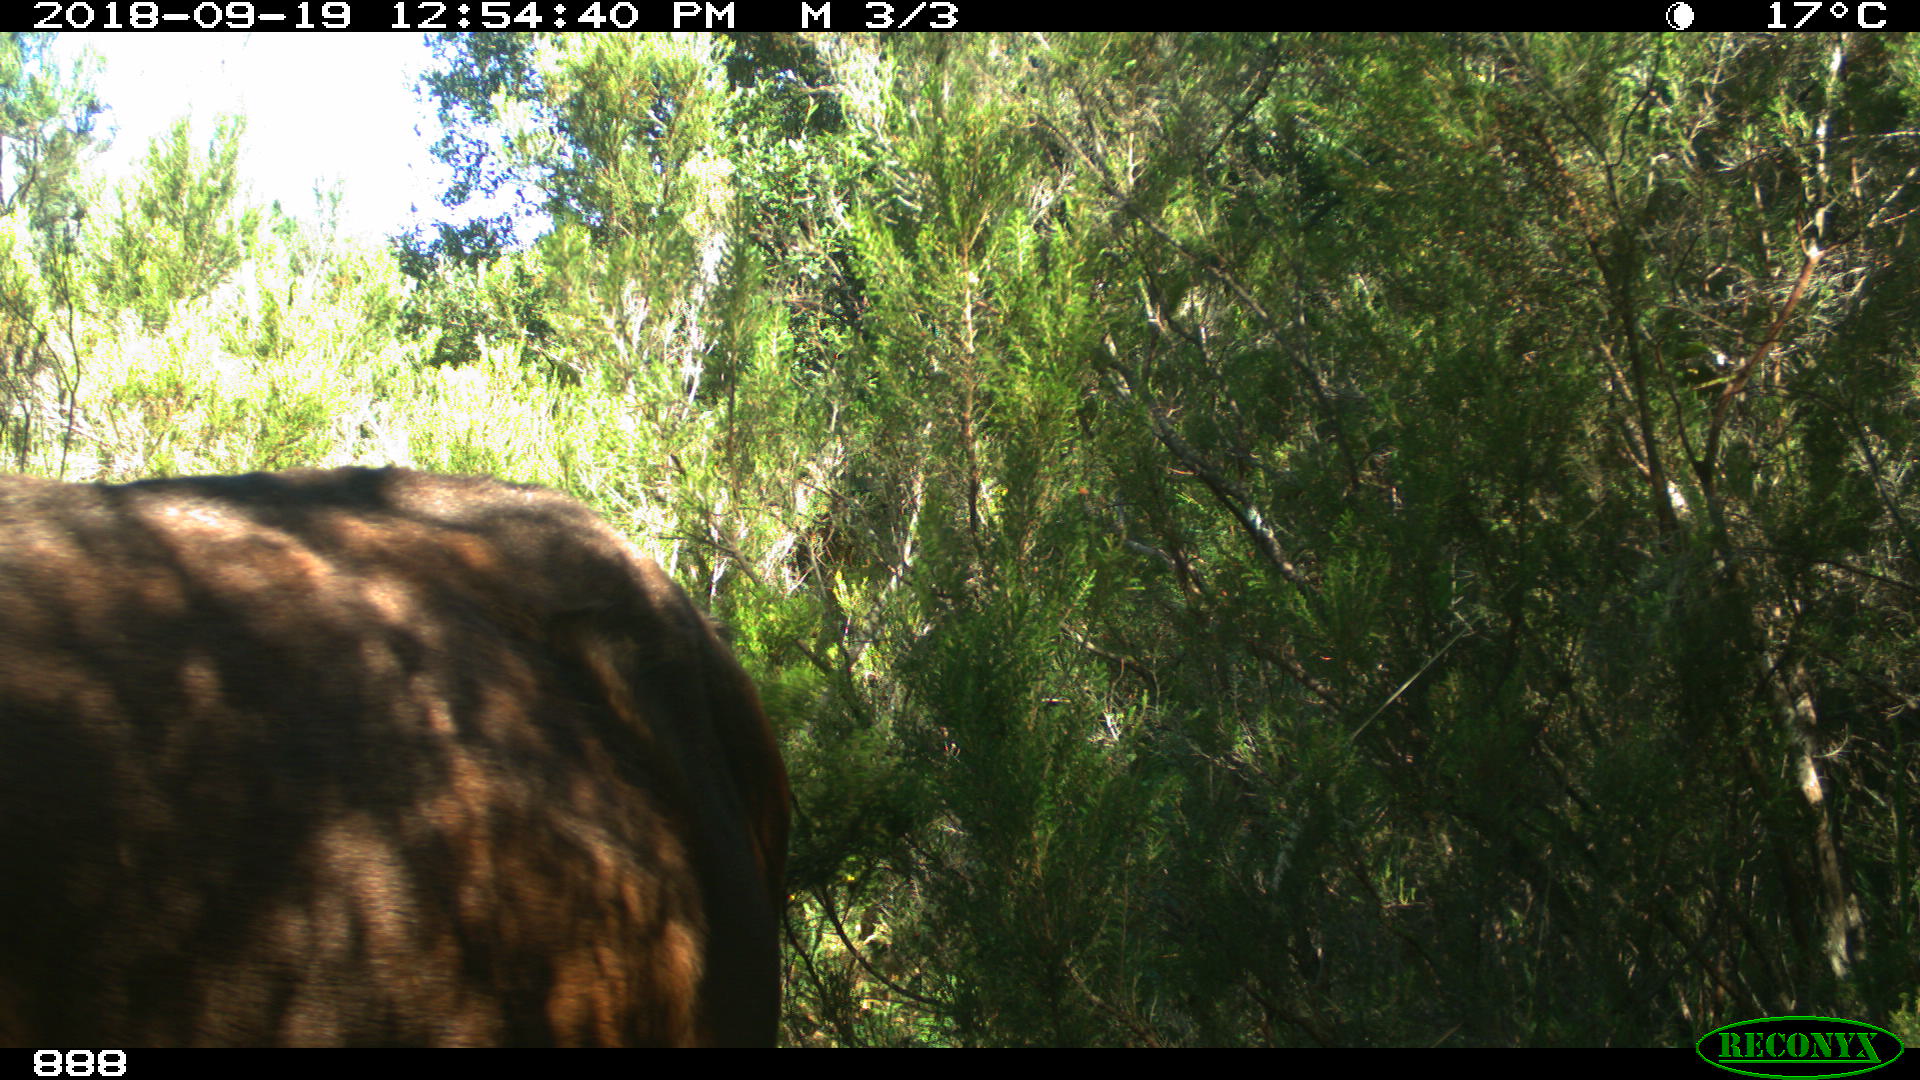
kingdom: Animalia
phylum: Chordata
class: Mammalia
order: Perissodactyla
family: Equidae
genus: Equus
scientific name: Equus caballus
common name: Horse
